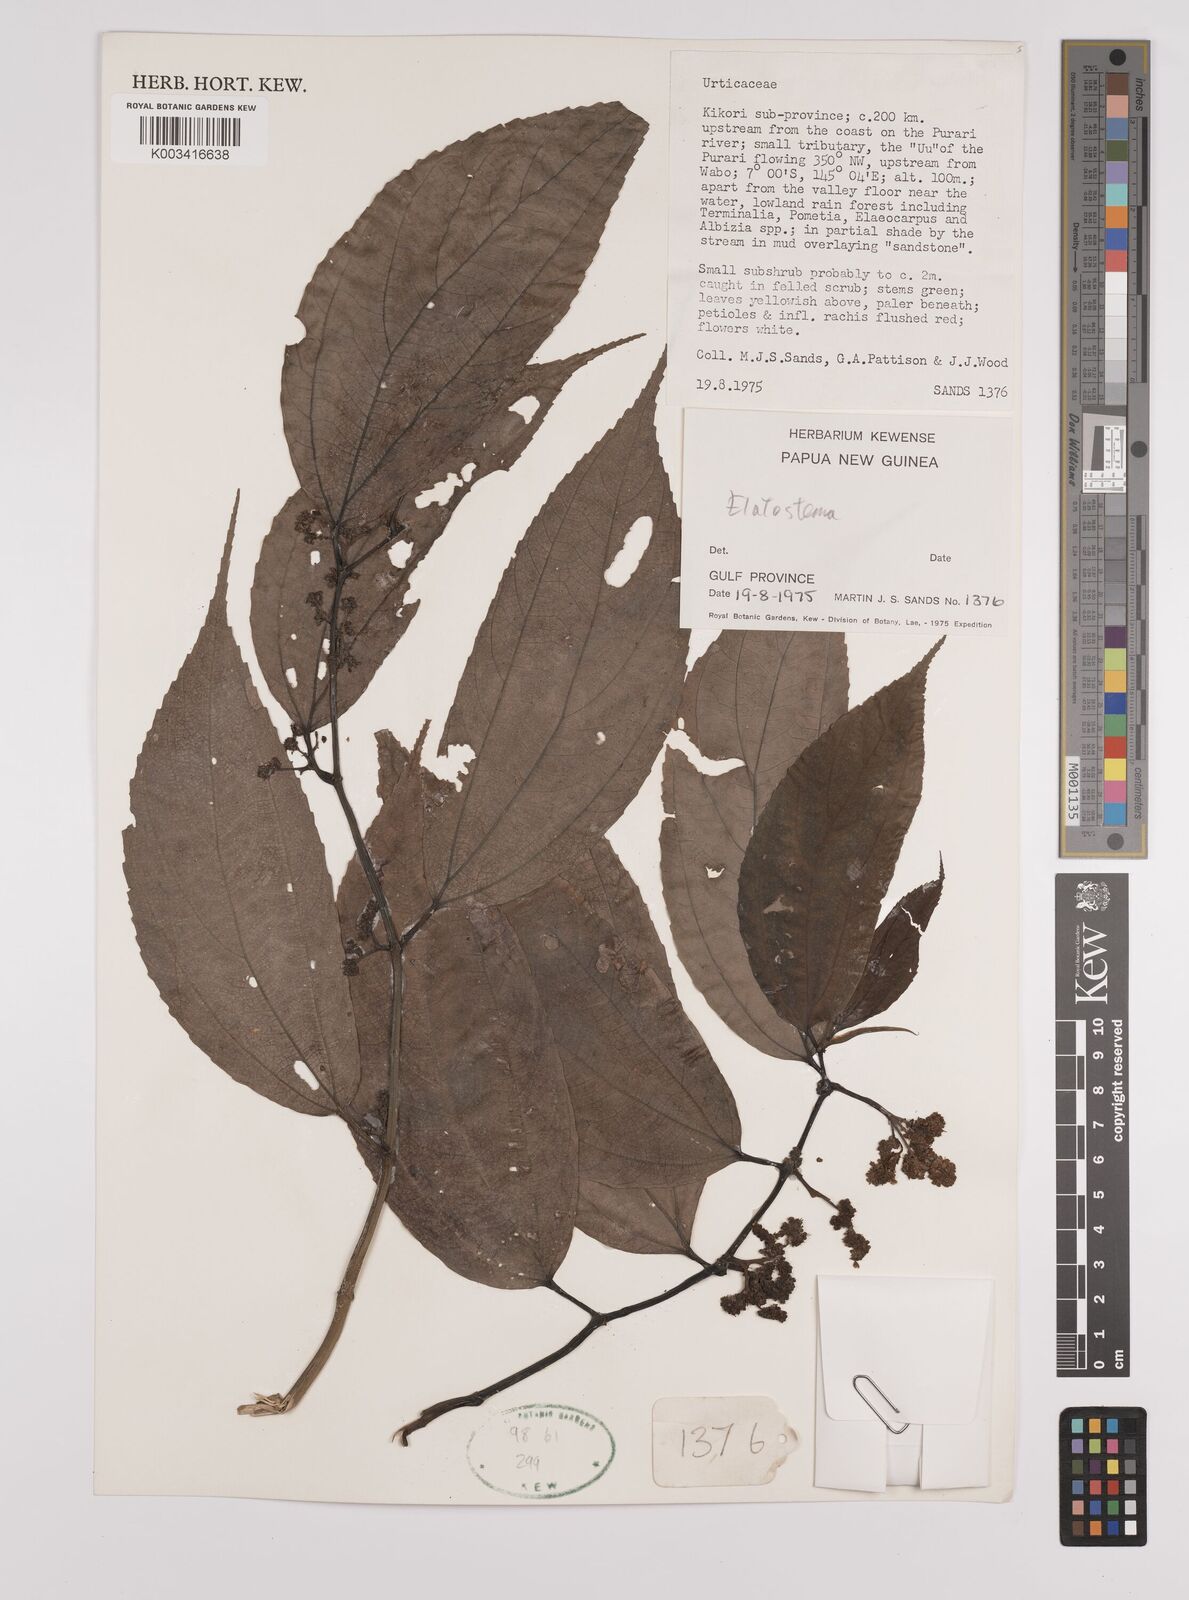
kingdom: Plantae
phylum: Tracheophyta
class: Magnoliopsida
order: Rosales
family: Urticaceae
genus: Elatostema
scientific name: Elatostema
